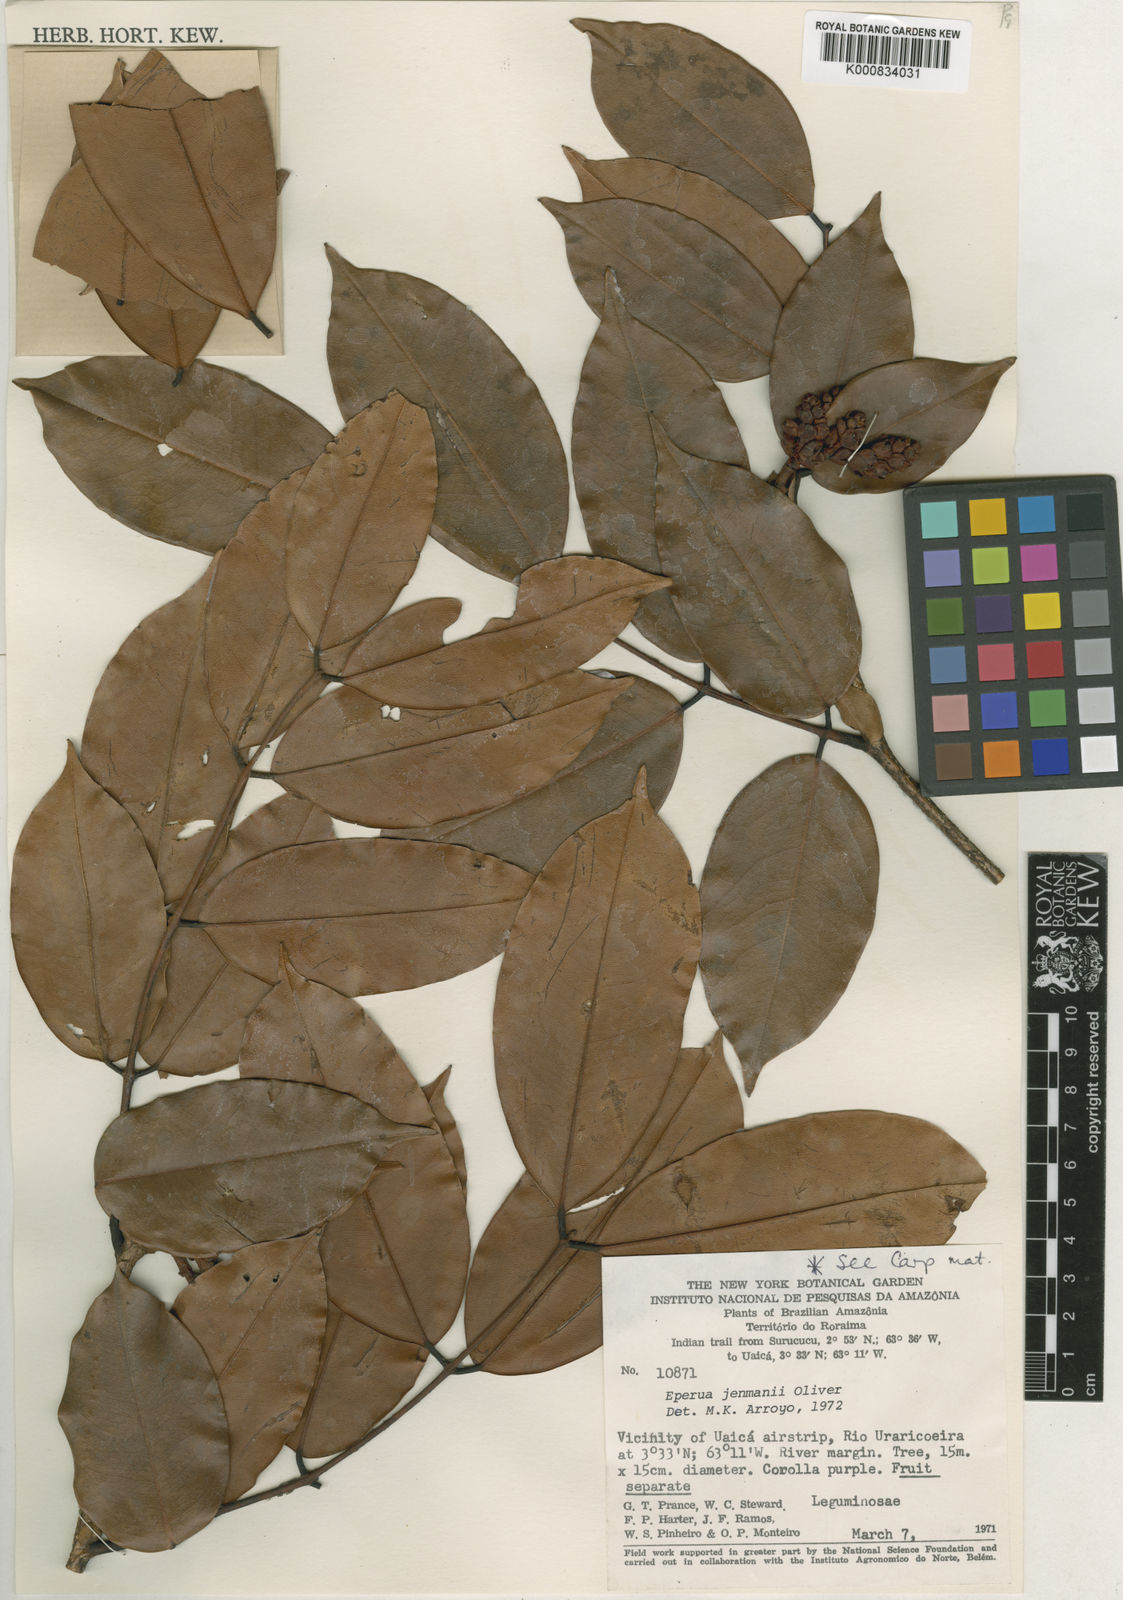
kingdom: Plantae
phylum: Tracheophyta
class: Magnoliopsida
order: Fabales
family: Fabaceae
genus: Eperua
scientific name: Eperua jenmanii
